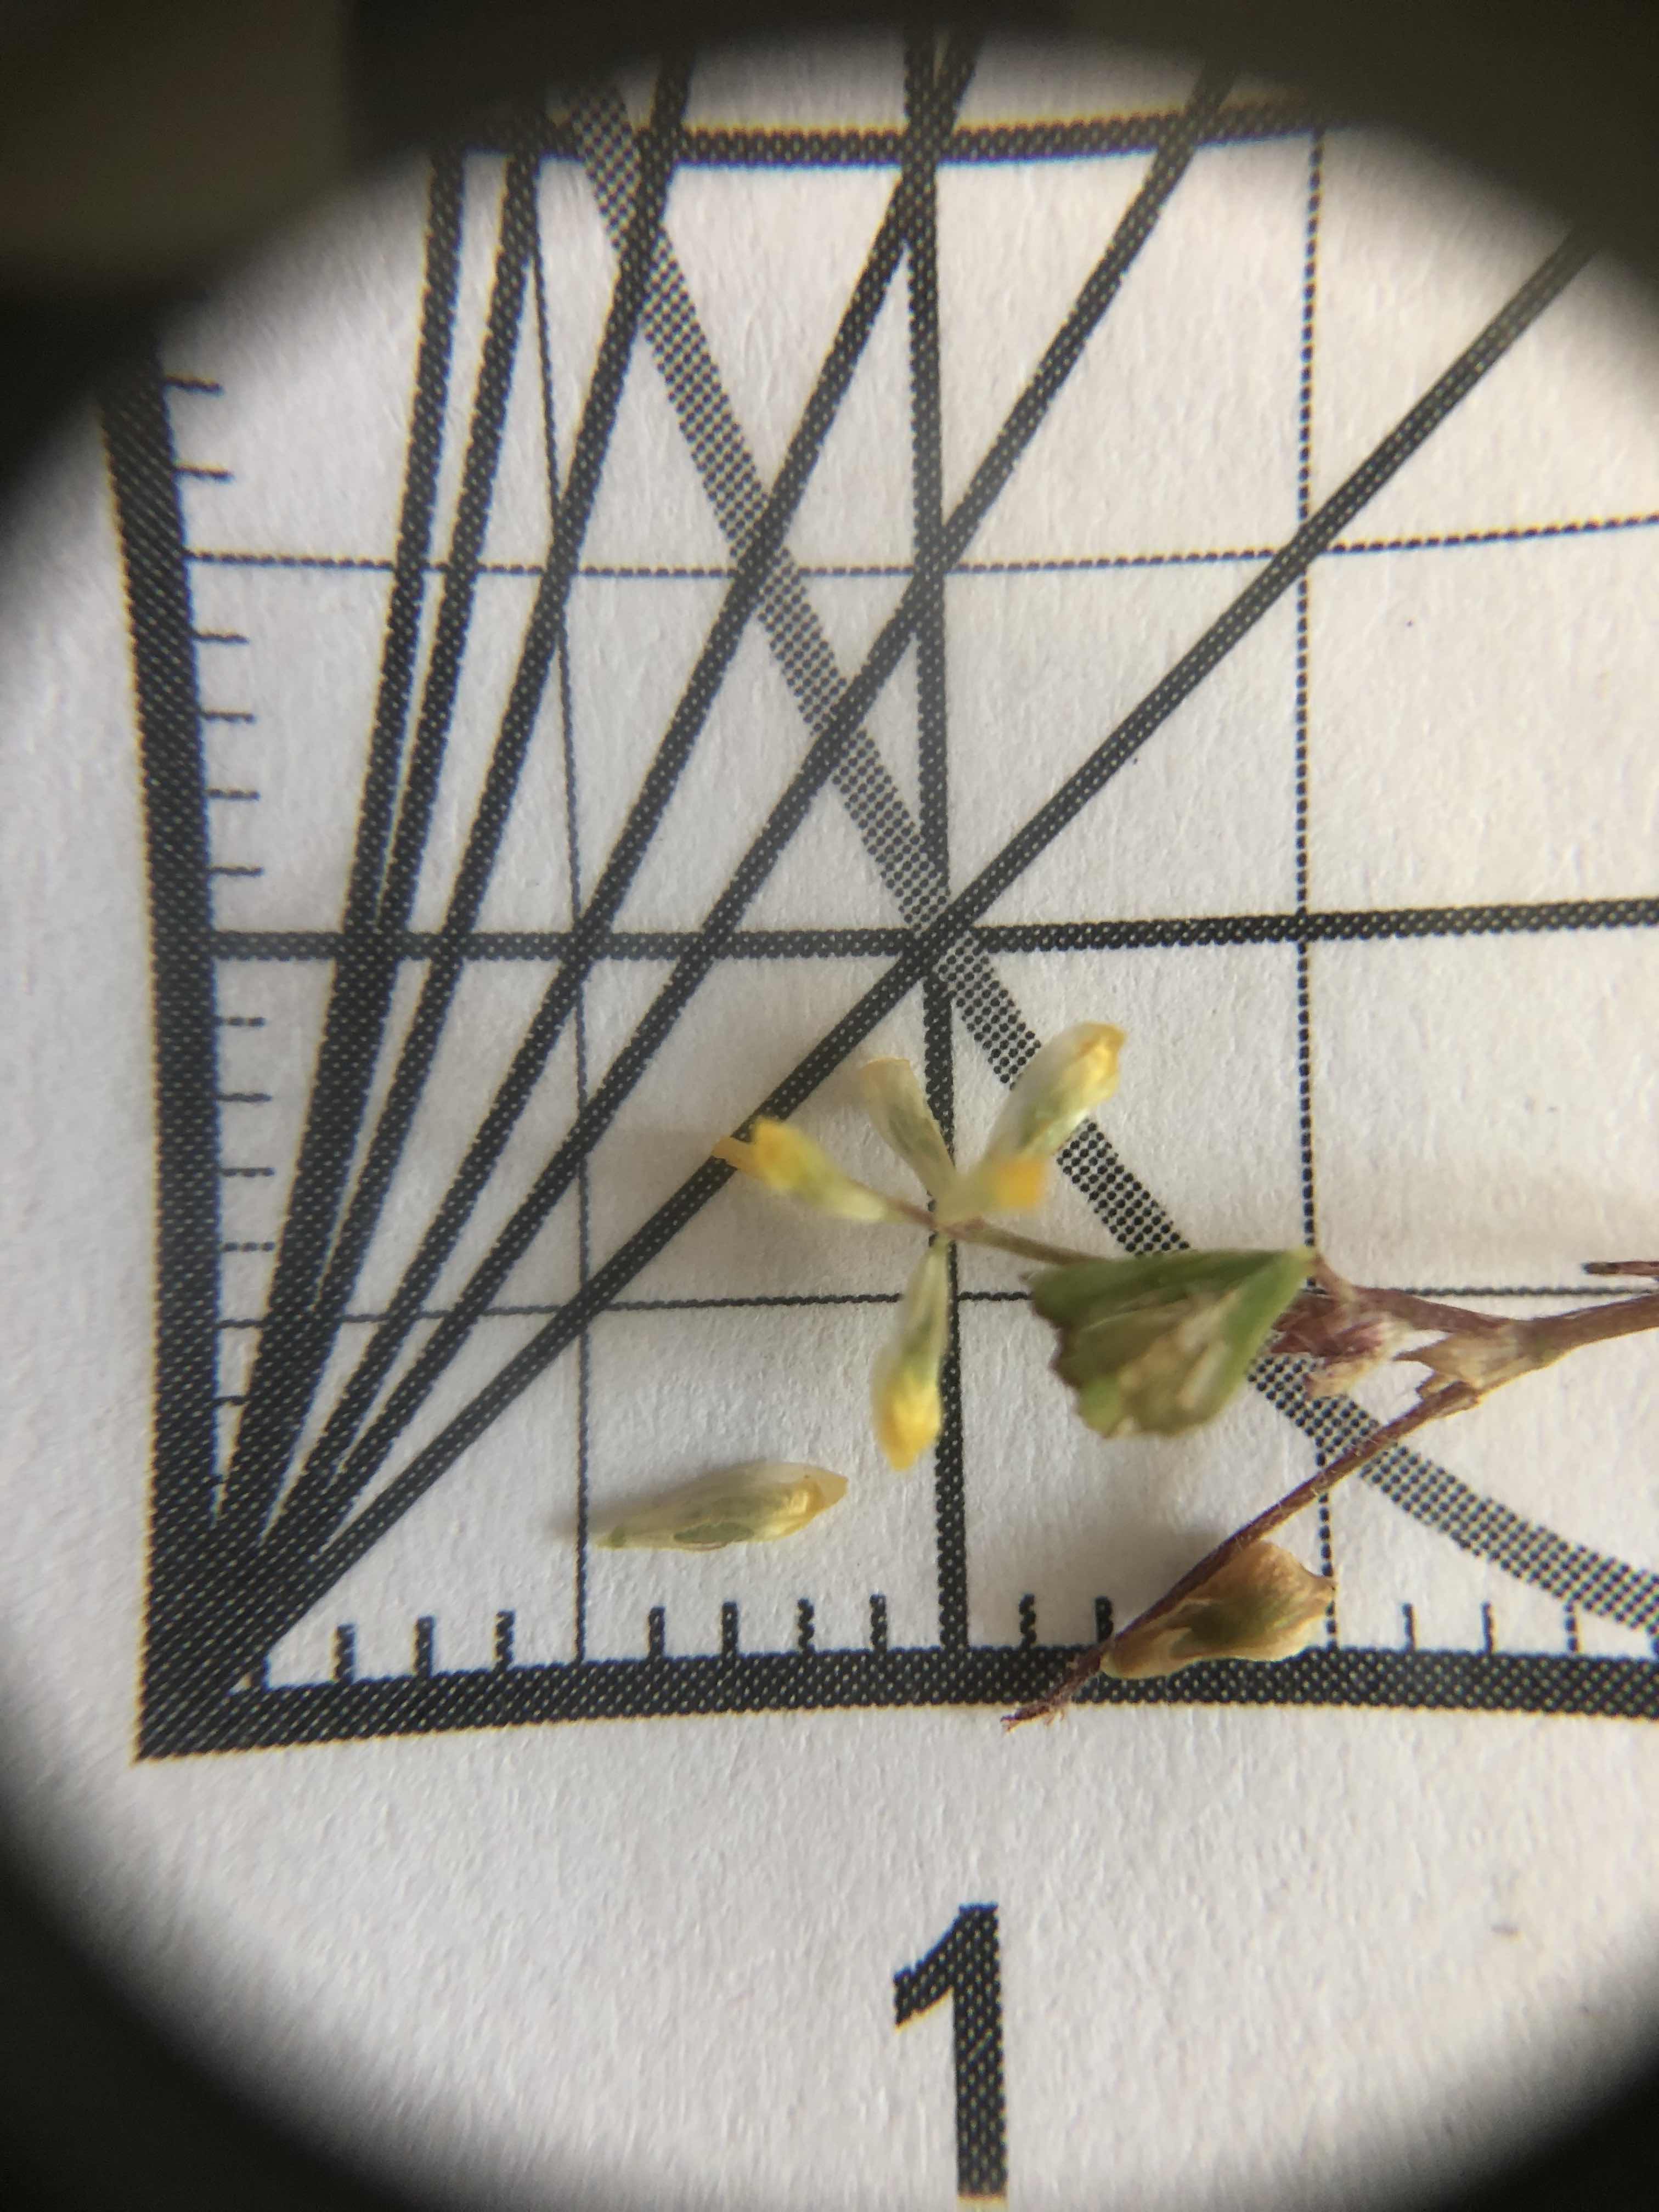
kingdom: Plantae
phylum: Tracheophyta
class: Magnoliopsida
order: Fabales
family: Fabaceae
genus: Trifolium
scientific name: Trifolium dubium
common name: Fin kløver
